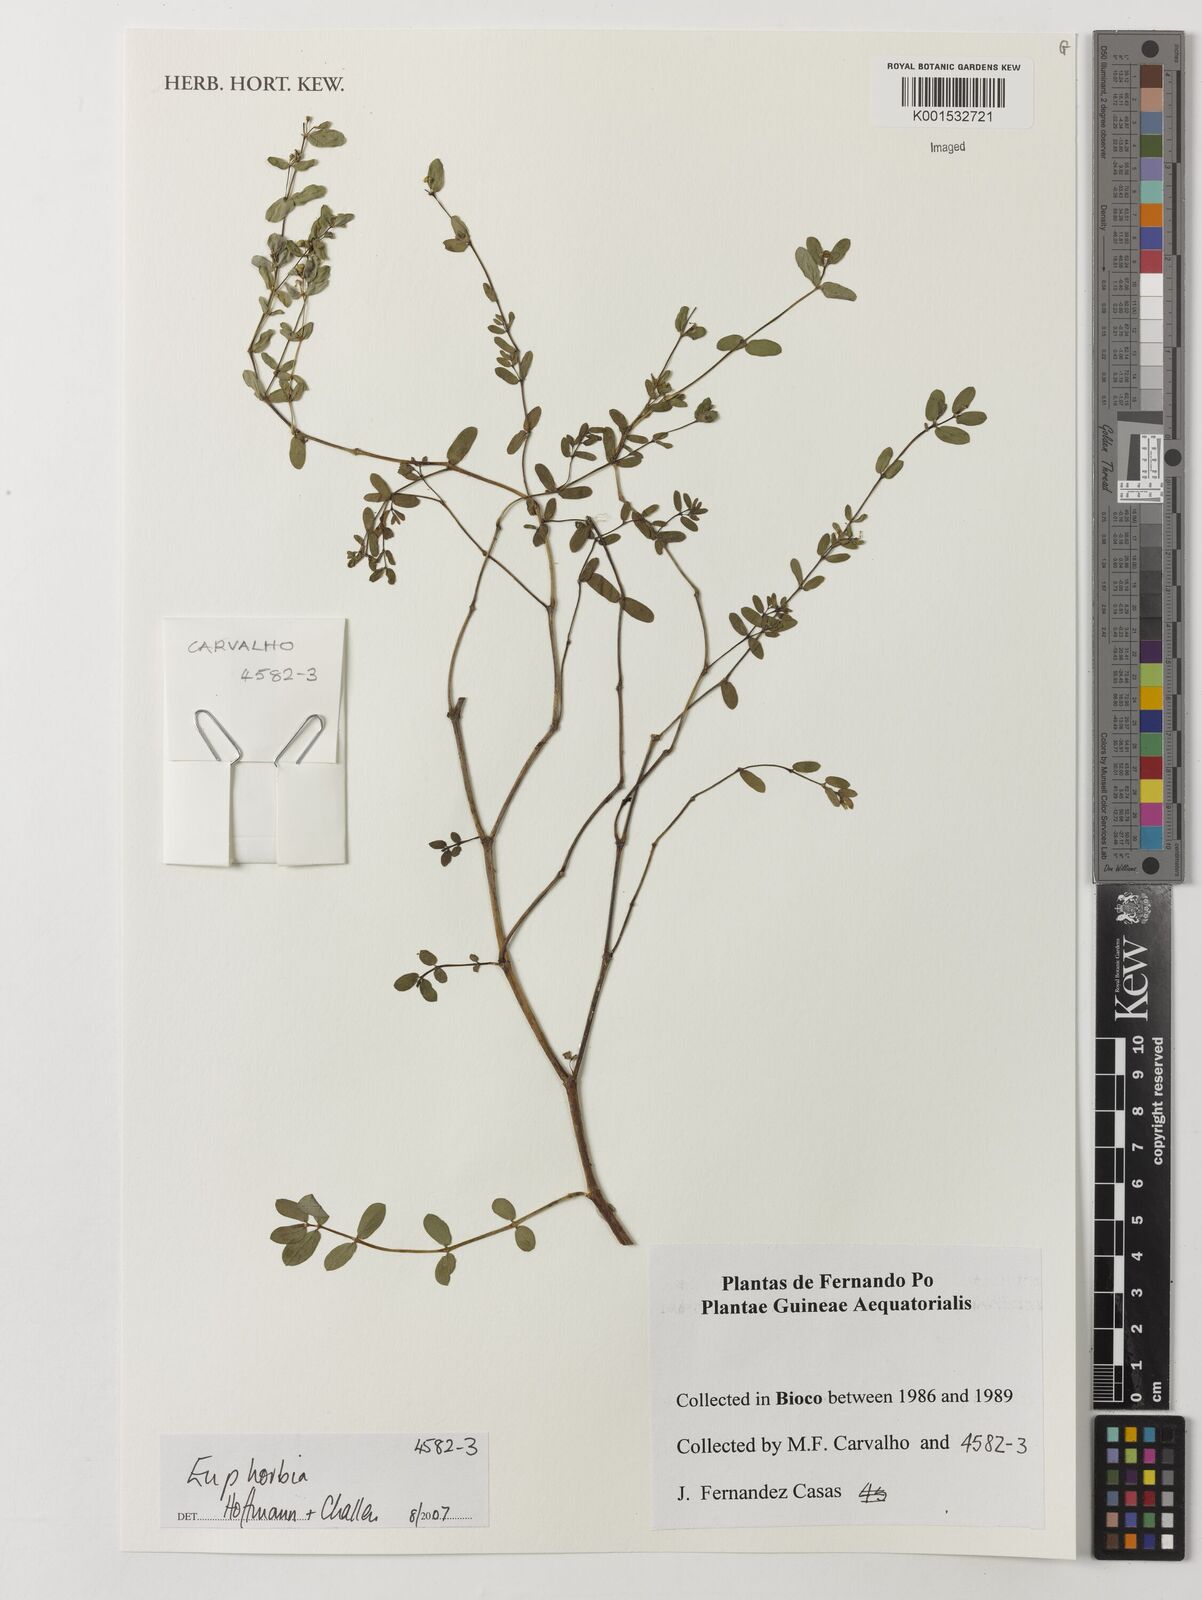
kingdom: Plantae
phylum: Tracheophyta
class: Magnoliopsida
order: Malpighiales
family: Euphorbiaceae
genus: Euphorbia
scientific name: Euphorbia
